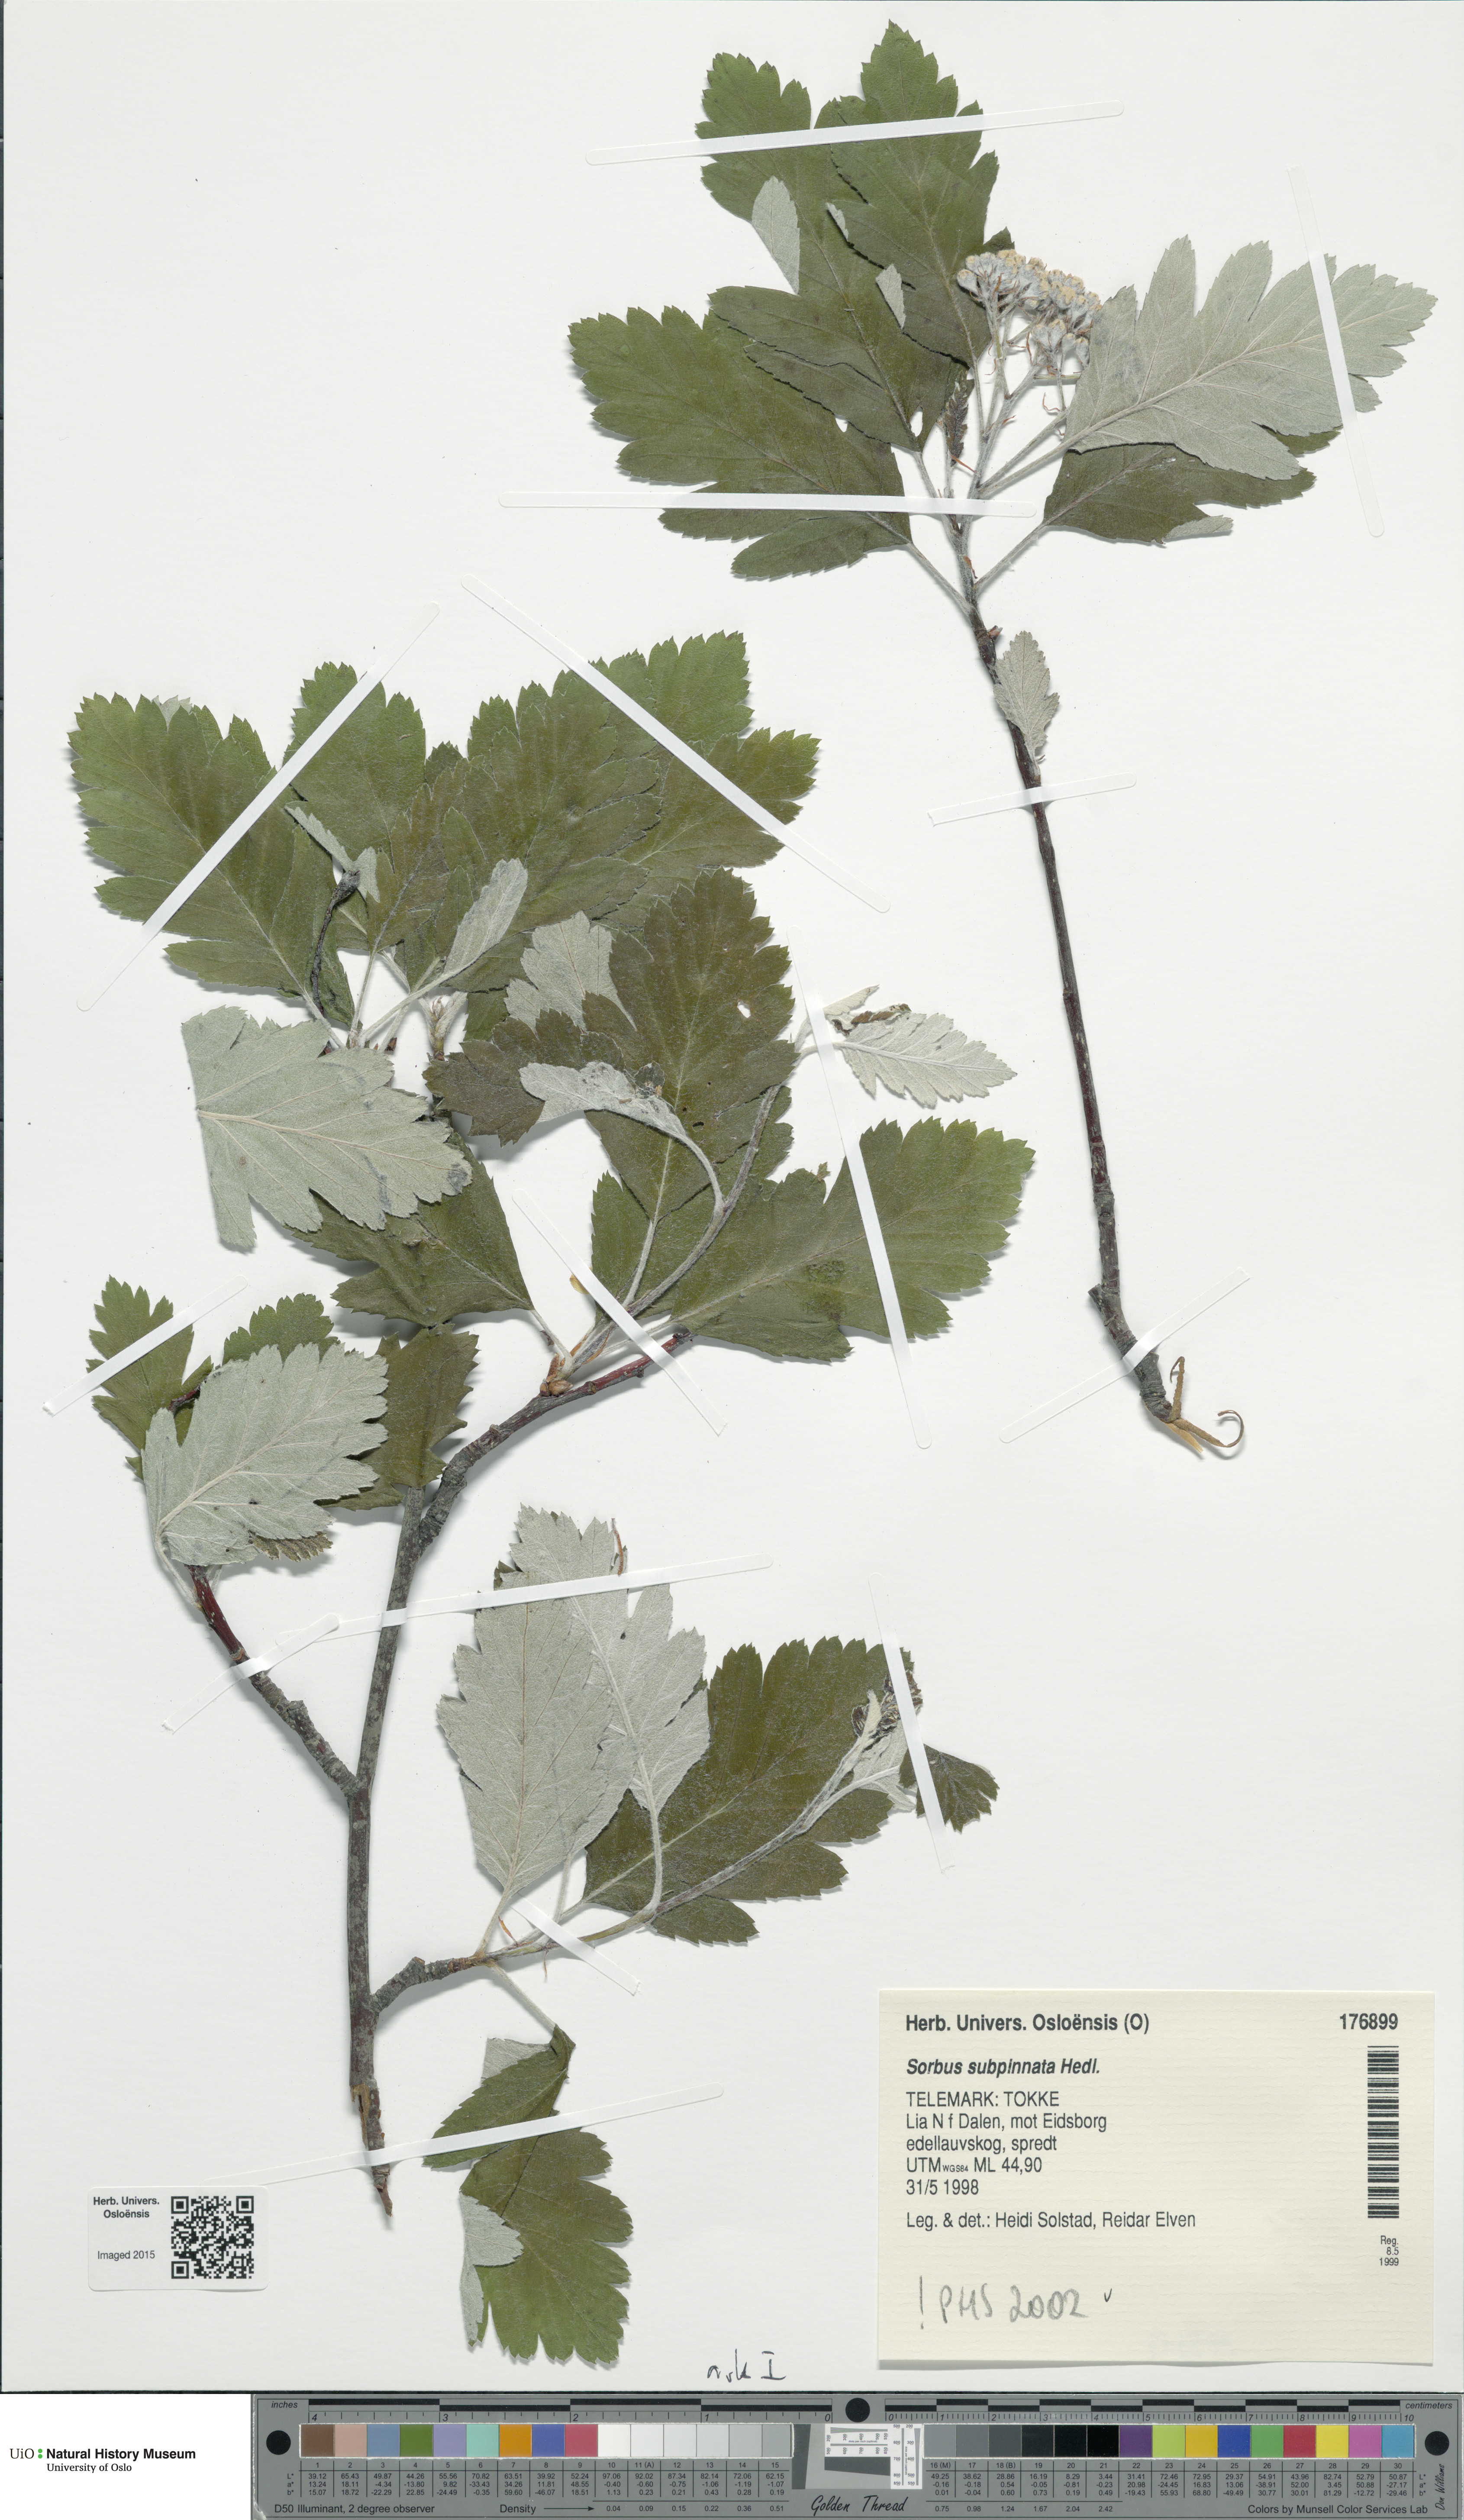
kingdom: Plantae
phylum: Tracheophyta
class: Magnoliopsida
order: Rosales
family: Rosaceae
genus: Hedlundia
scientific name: Hedlundia subpinnata
